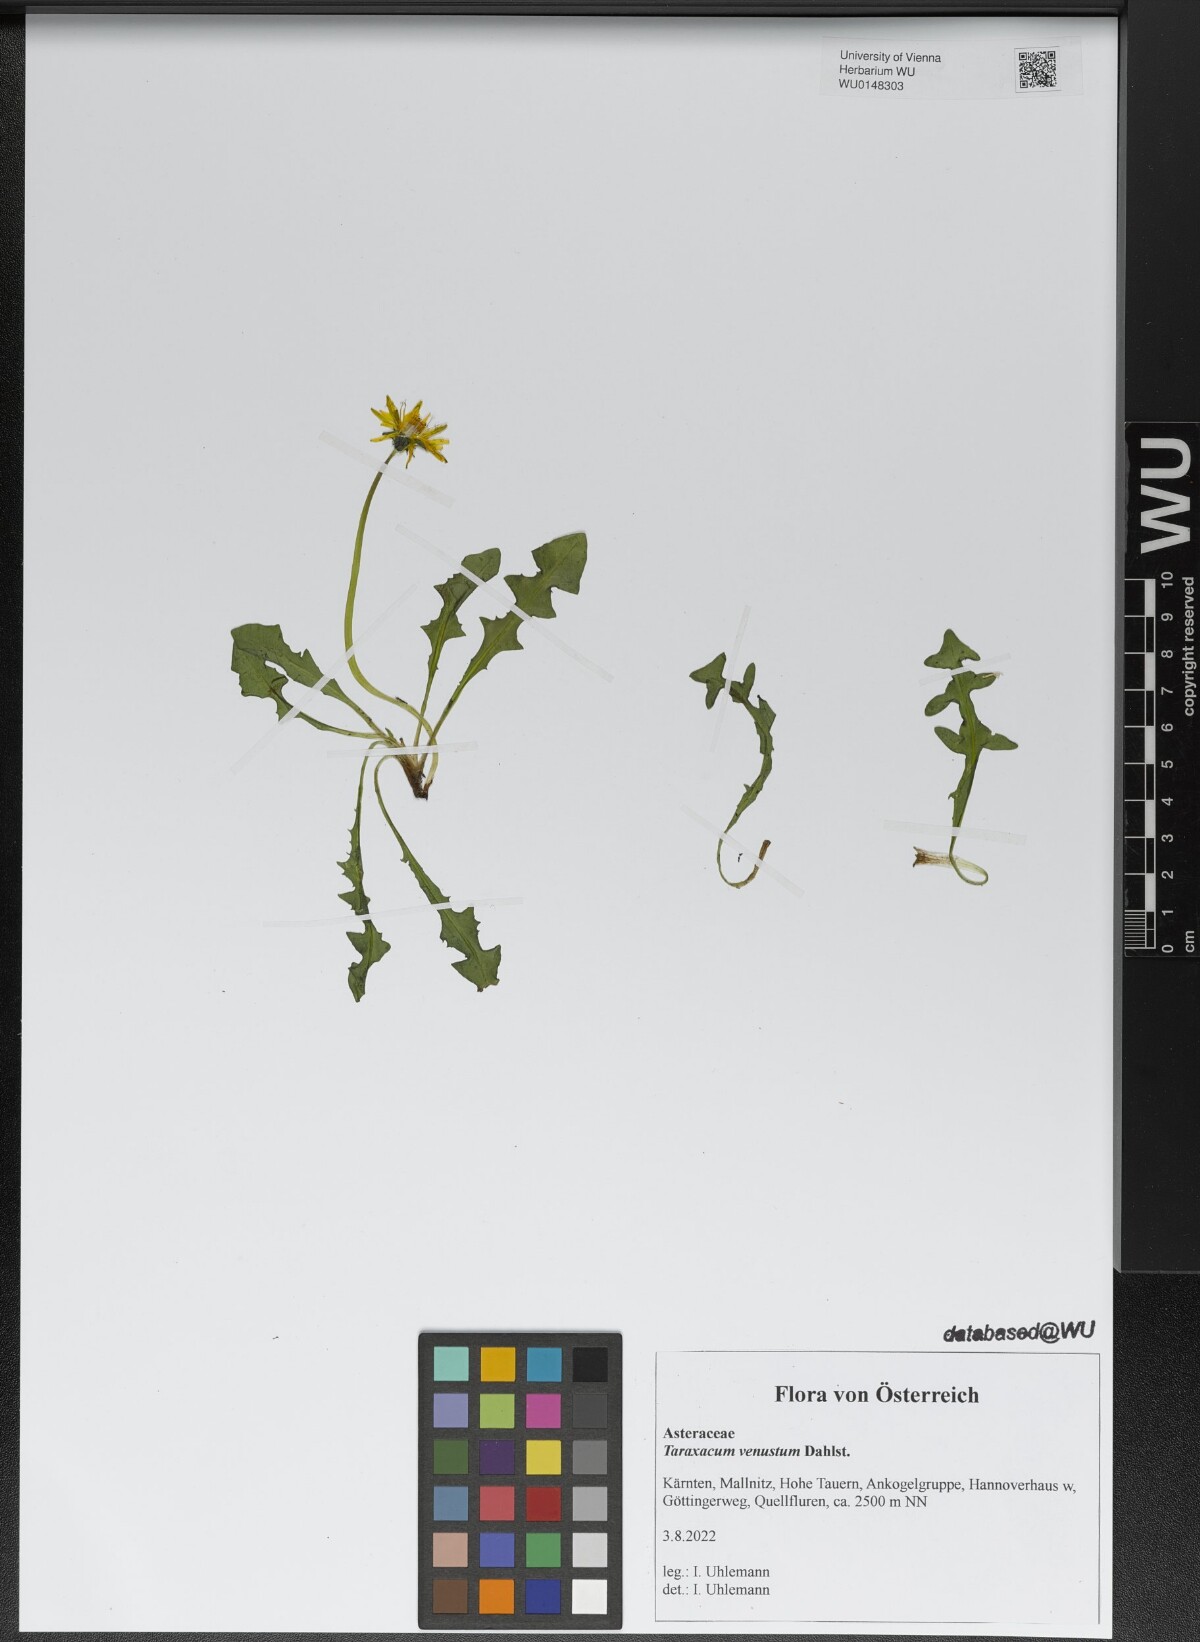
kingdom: Plantae
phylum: Tracheophyta
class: Magnoliopsida
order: Asterales
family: Asteraceae
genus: Taraxacum
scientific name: Taraxacum venustum
